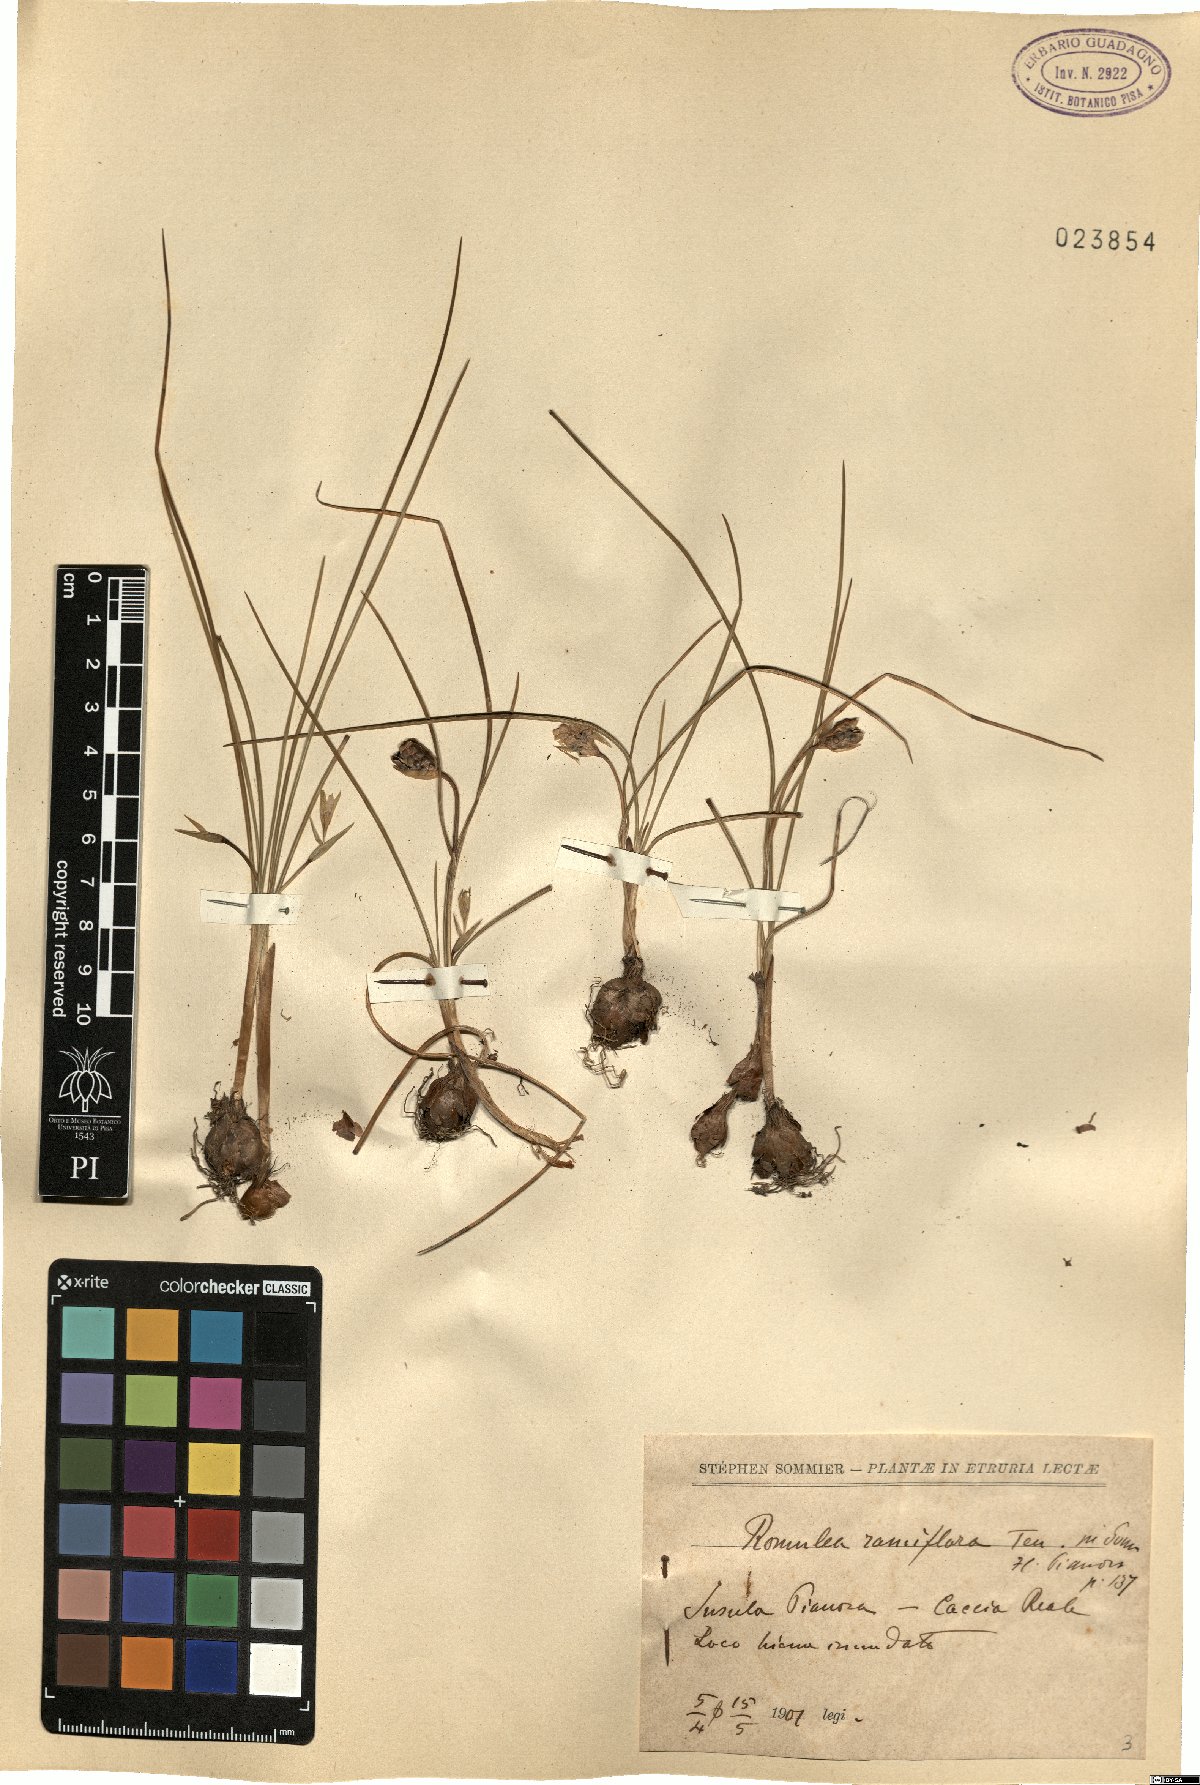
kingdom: Plantae
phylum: Tracheophyta
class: Liliopsida
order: Asparagales
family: Iridaceae
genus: Romulea
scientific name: Romulea ramiflora
